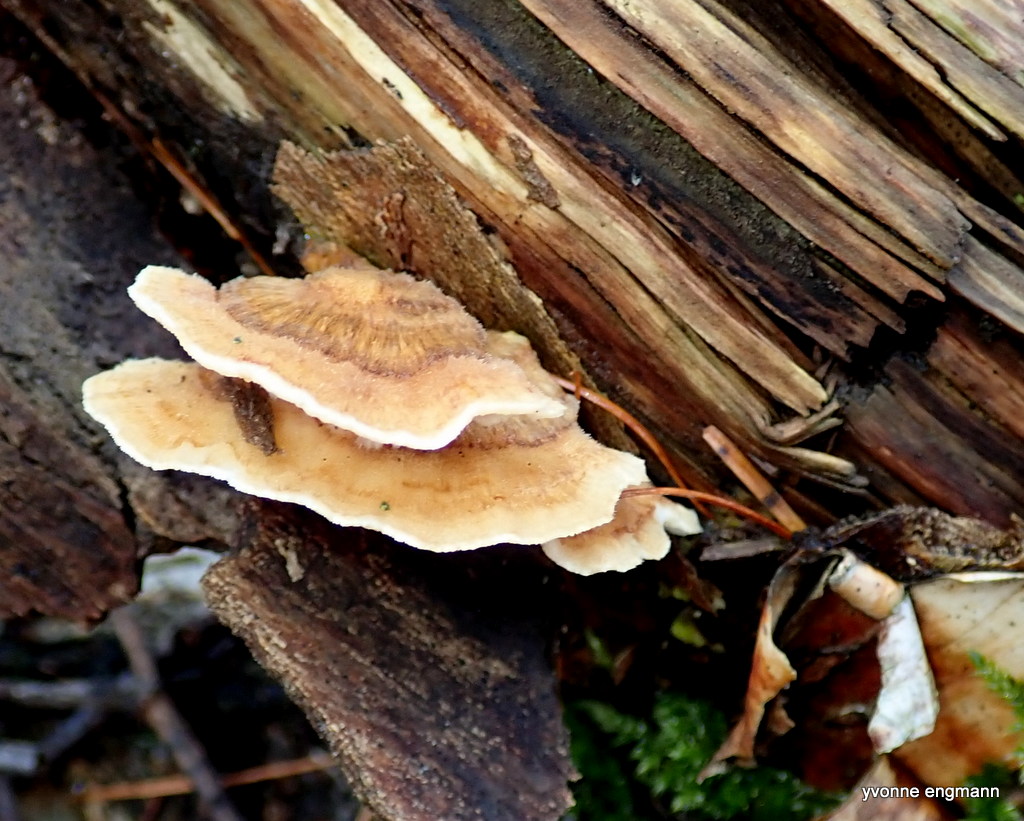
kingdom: Fungi
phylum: Basidiomycota
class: Agaricomycetes
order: Polyporales
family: Polyporaceae
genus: Trametes
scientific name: Trametes versicolor
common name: broget læderporesvamp
